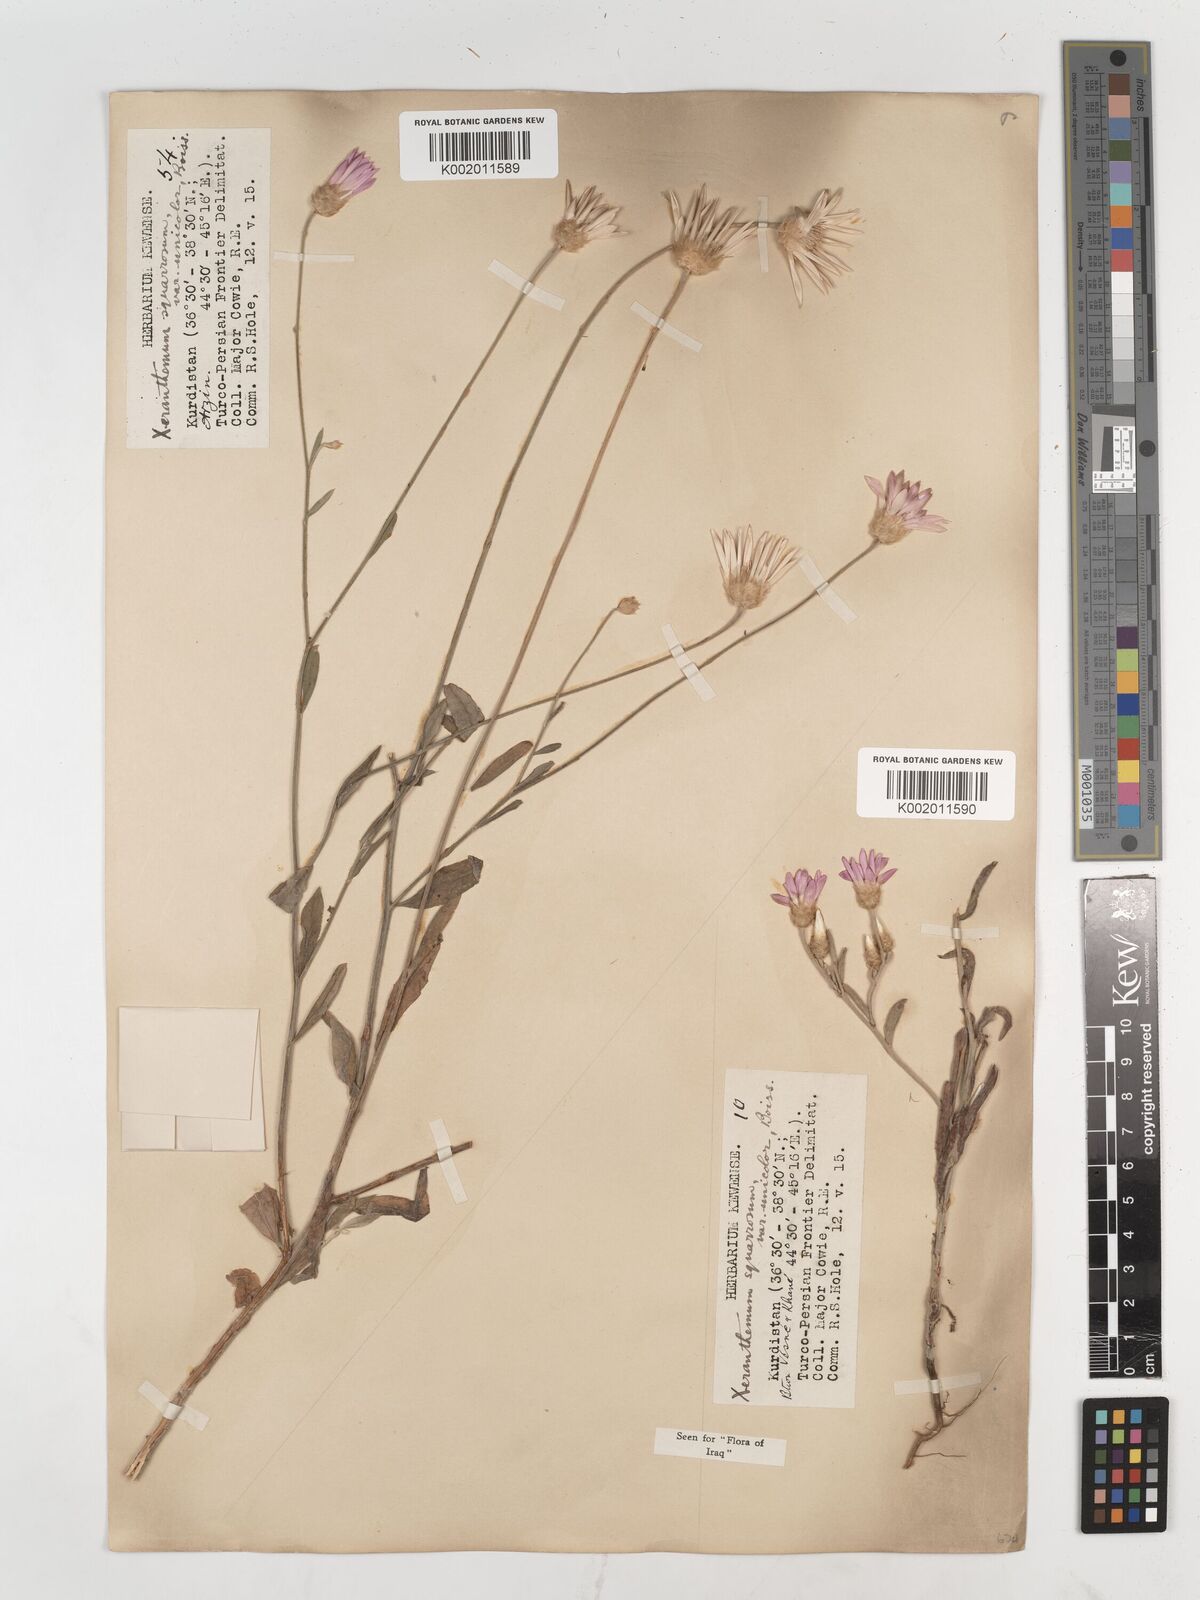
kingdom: Plantae
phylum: Tracheophyta
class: Magnoliopsida
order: Asterales
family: Asteraceae
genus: Xeranthemum
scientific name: Xeranthemum annuum
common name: Immortelle
